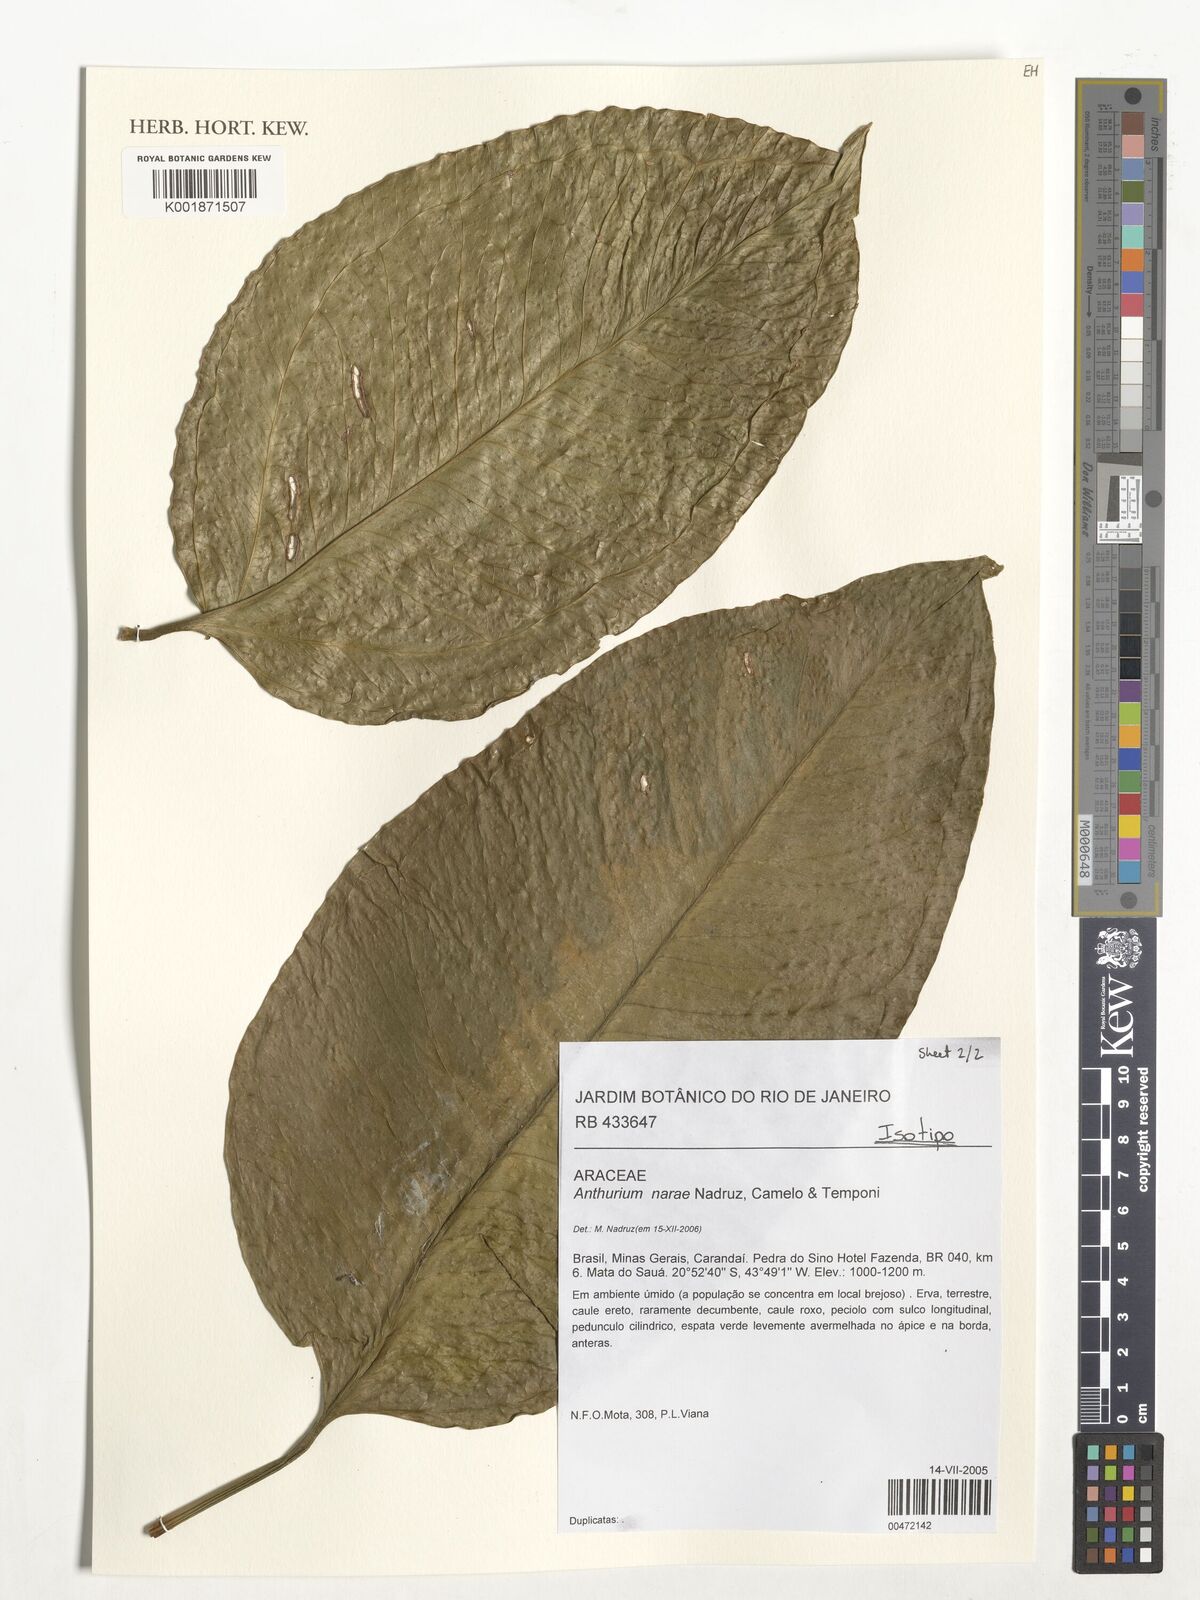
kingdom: Plantae
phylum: Tracheophyta
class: Liliopsida
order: Alismatales
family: Araceae
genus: Anthurium
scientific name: Anthurium narae
